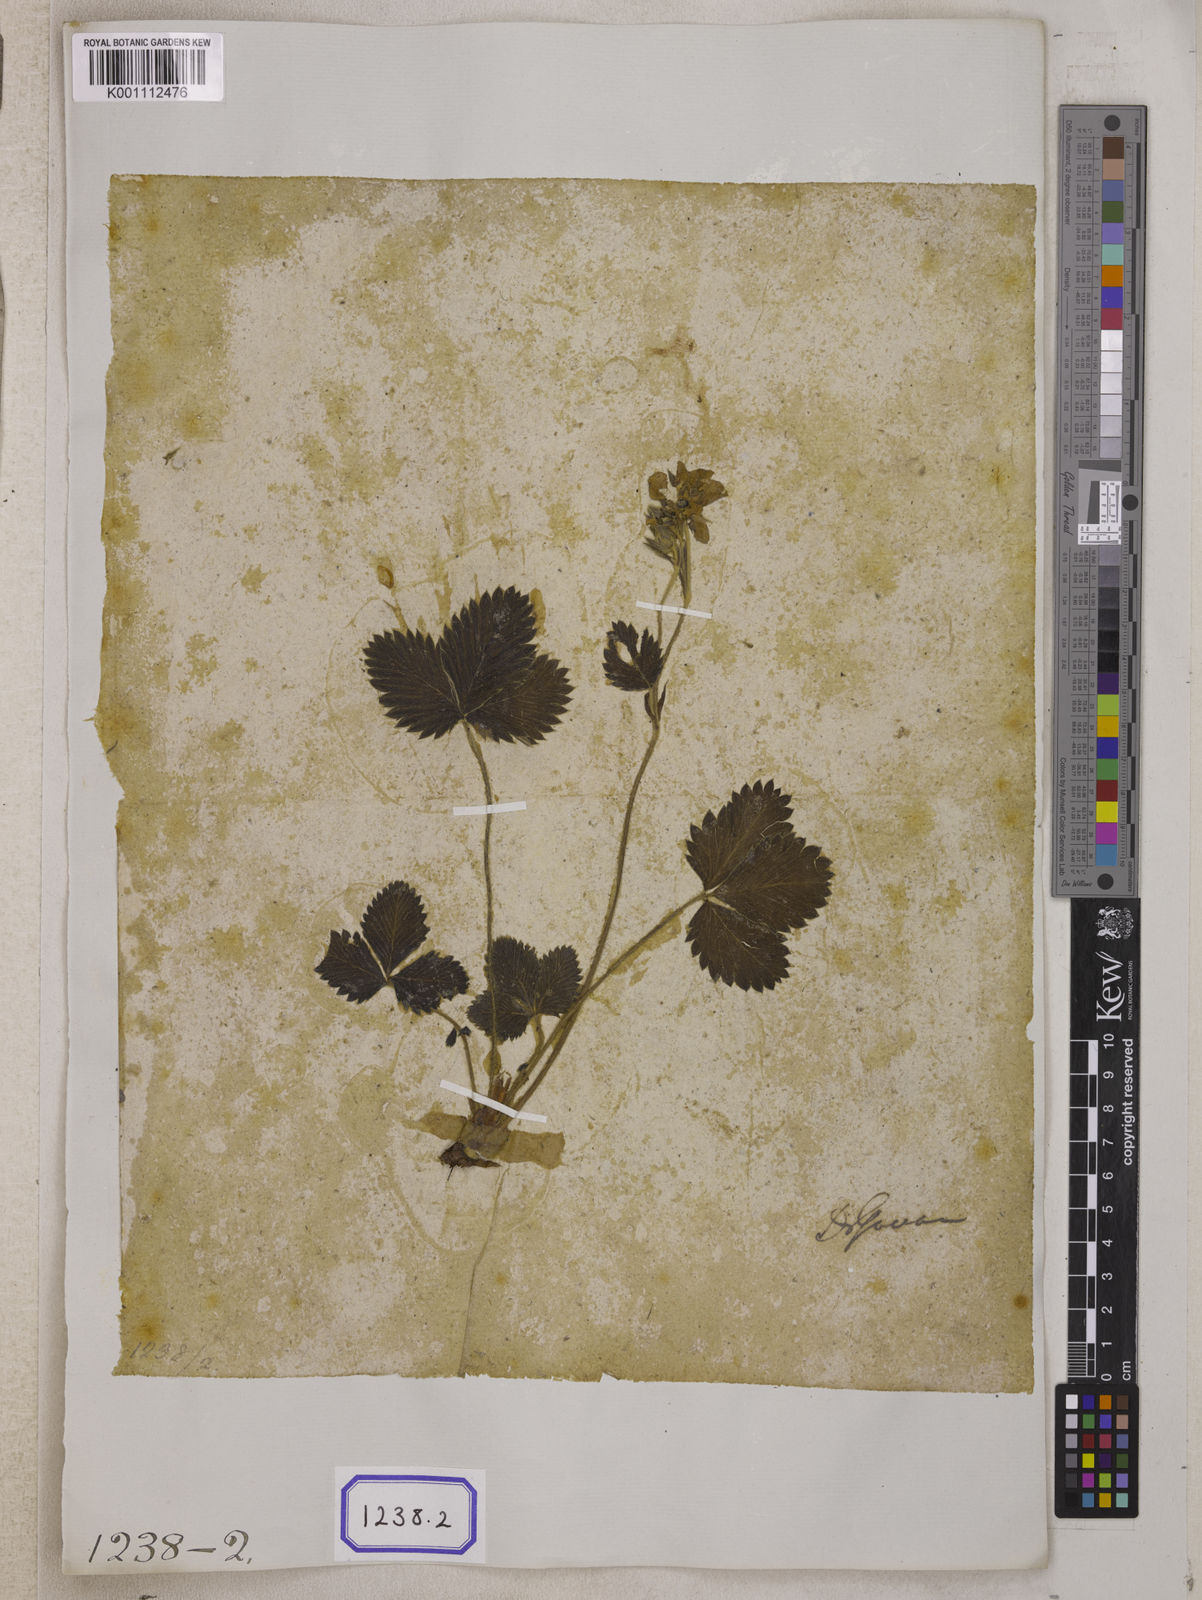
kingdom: Plantae
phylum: Tracheophyta
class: Magnoliopsida
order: Rosales
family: Rosaceae
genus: Fragaria
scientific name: Fragaria
